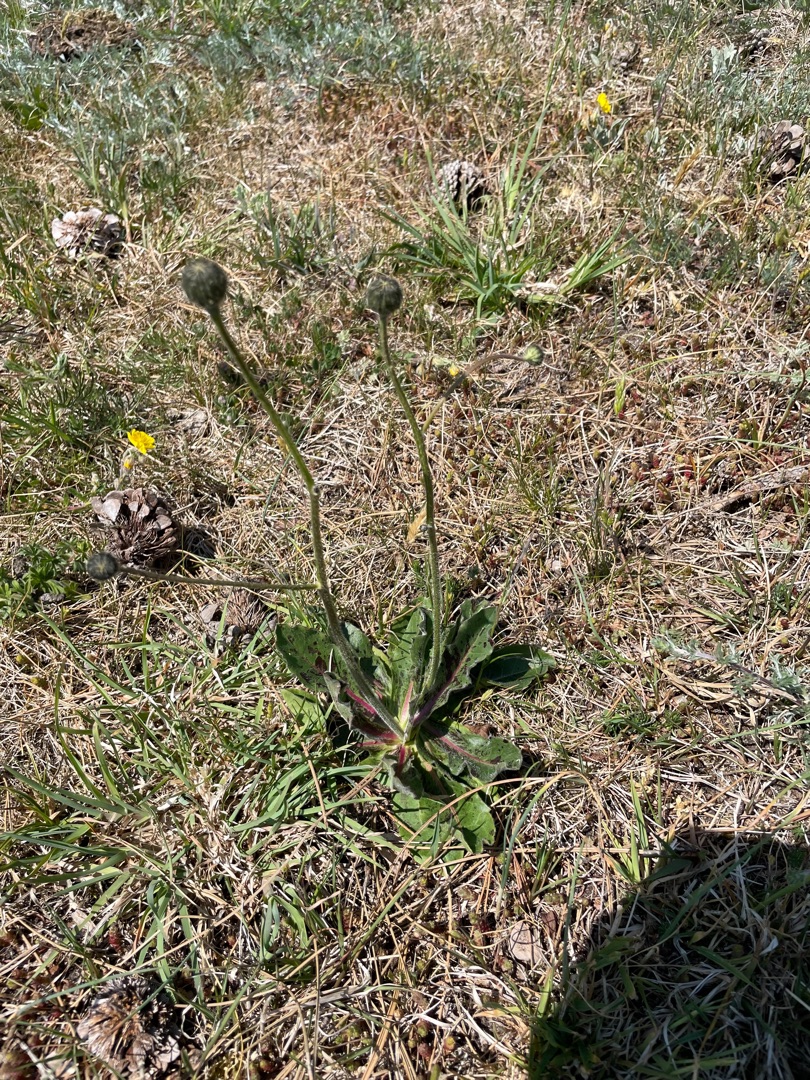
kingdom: Plantae
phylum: Tracheophyta
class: Magnoliopsida
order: Asterales
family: Asteraceae
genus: Trommsdorffia
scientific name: Trommsdorffia maculata
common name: Plettet kongepen
